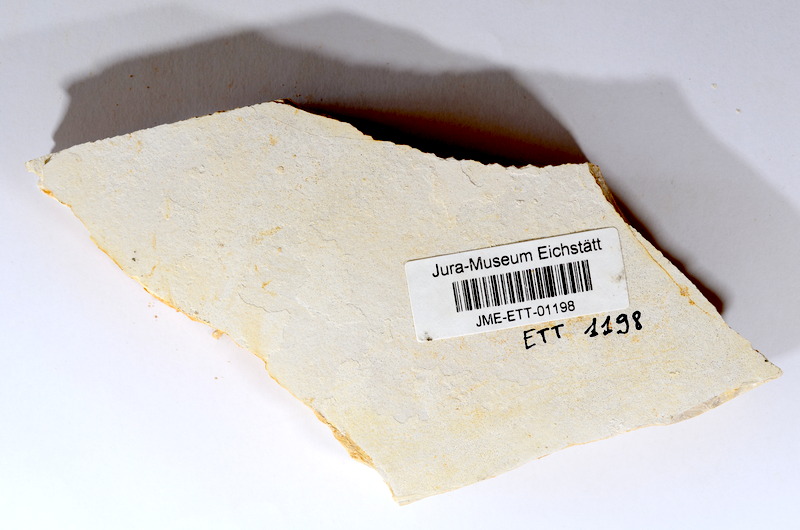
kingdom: Animalia
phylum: Chordata
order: Salmoniformes
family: Orthogonikleithridae
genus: Orthogonikleithrus
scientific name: Orthogonikleithrus hoelli
